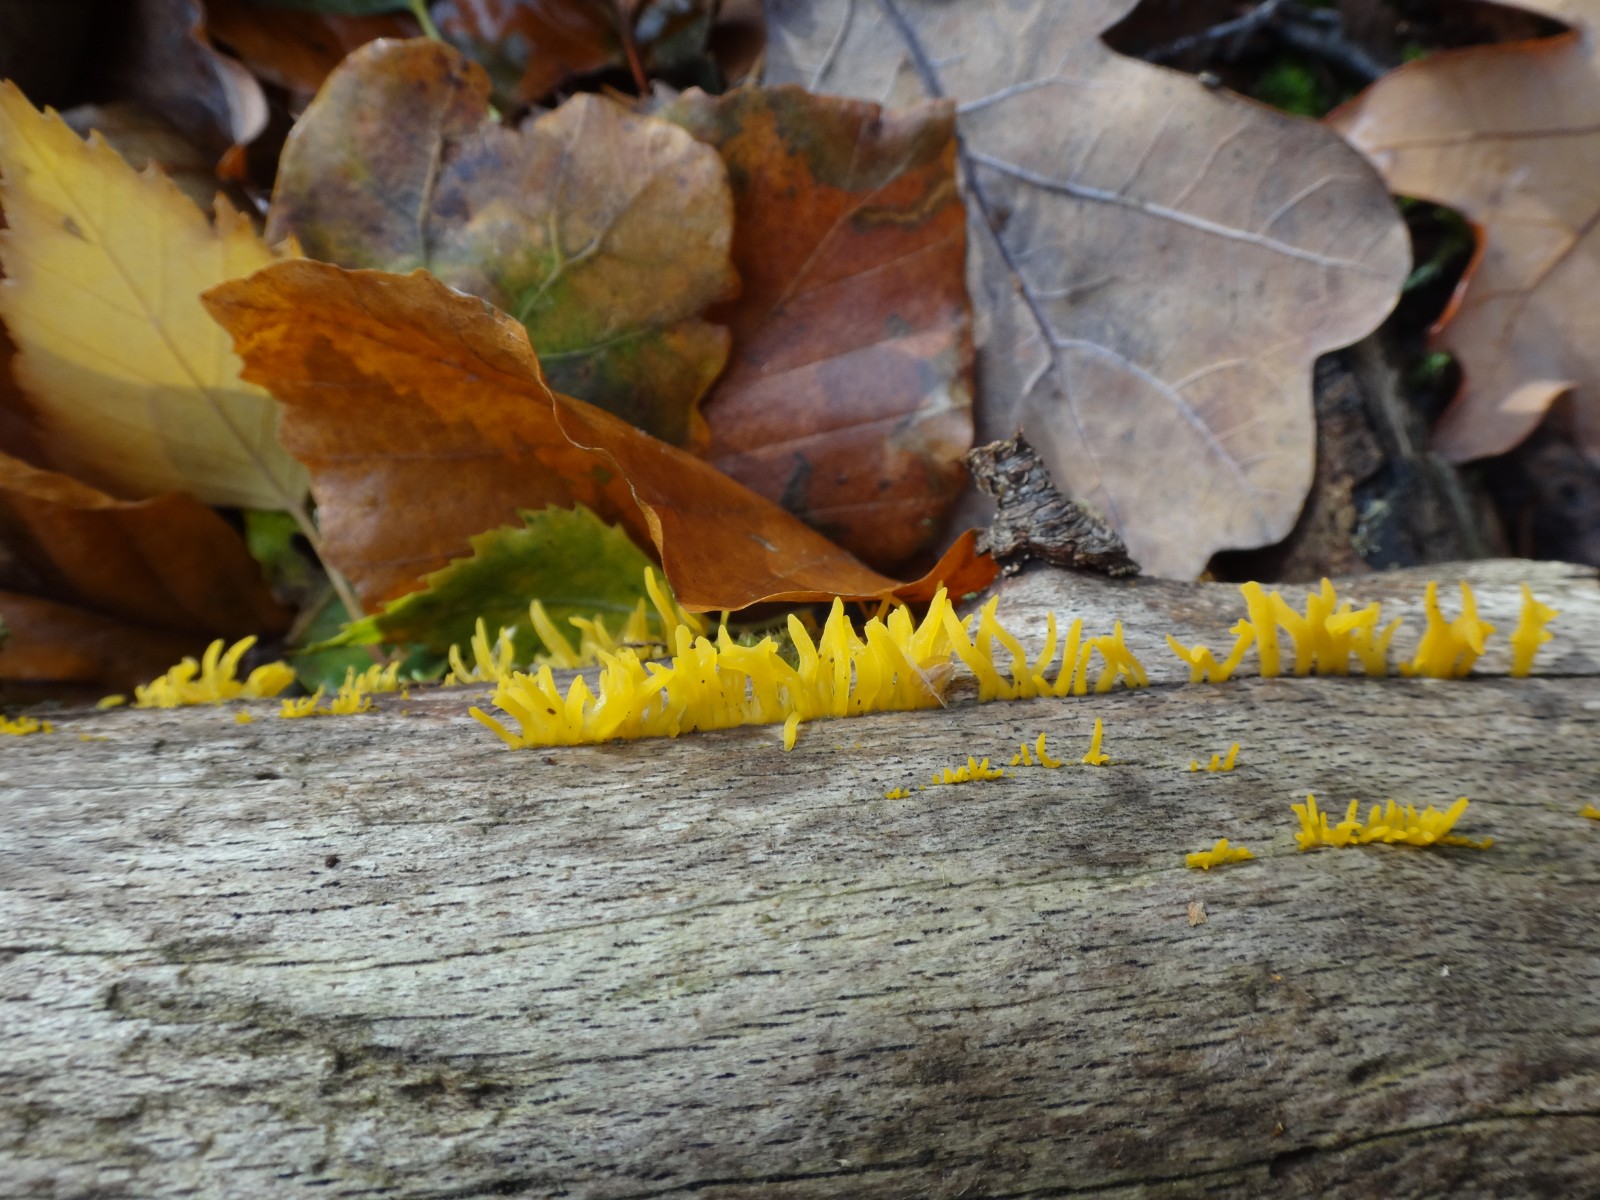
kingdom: Fungi
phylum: Basidiomycota
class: Dacrymycetes
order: Dacrymycetales
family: Dacrymycetaceae
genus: Calocera
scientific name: Calocera cornea
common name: liden guldgaffel
